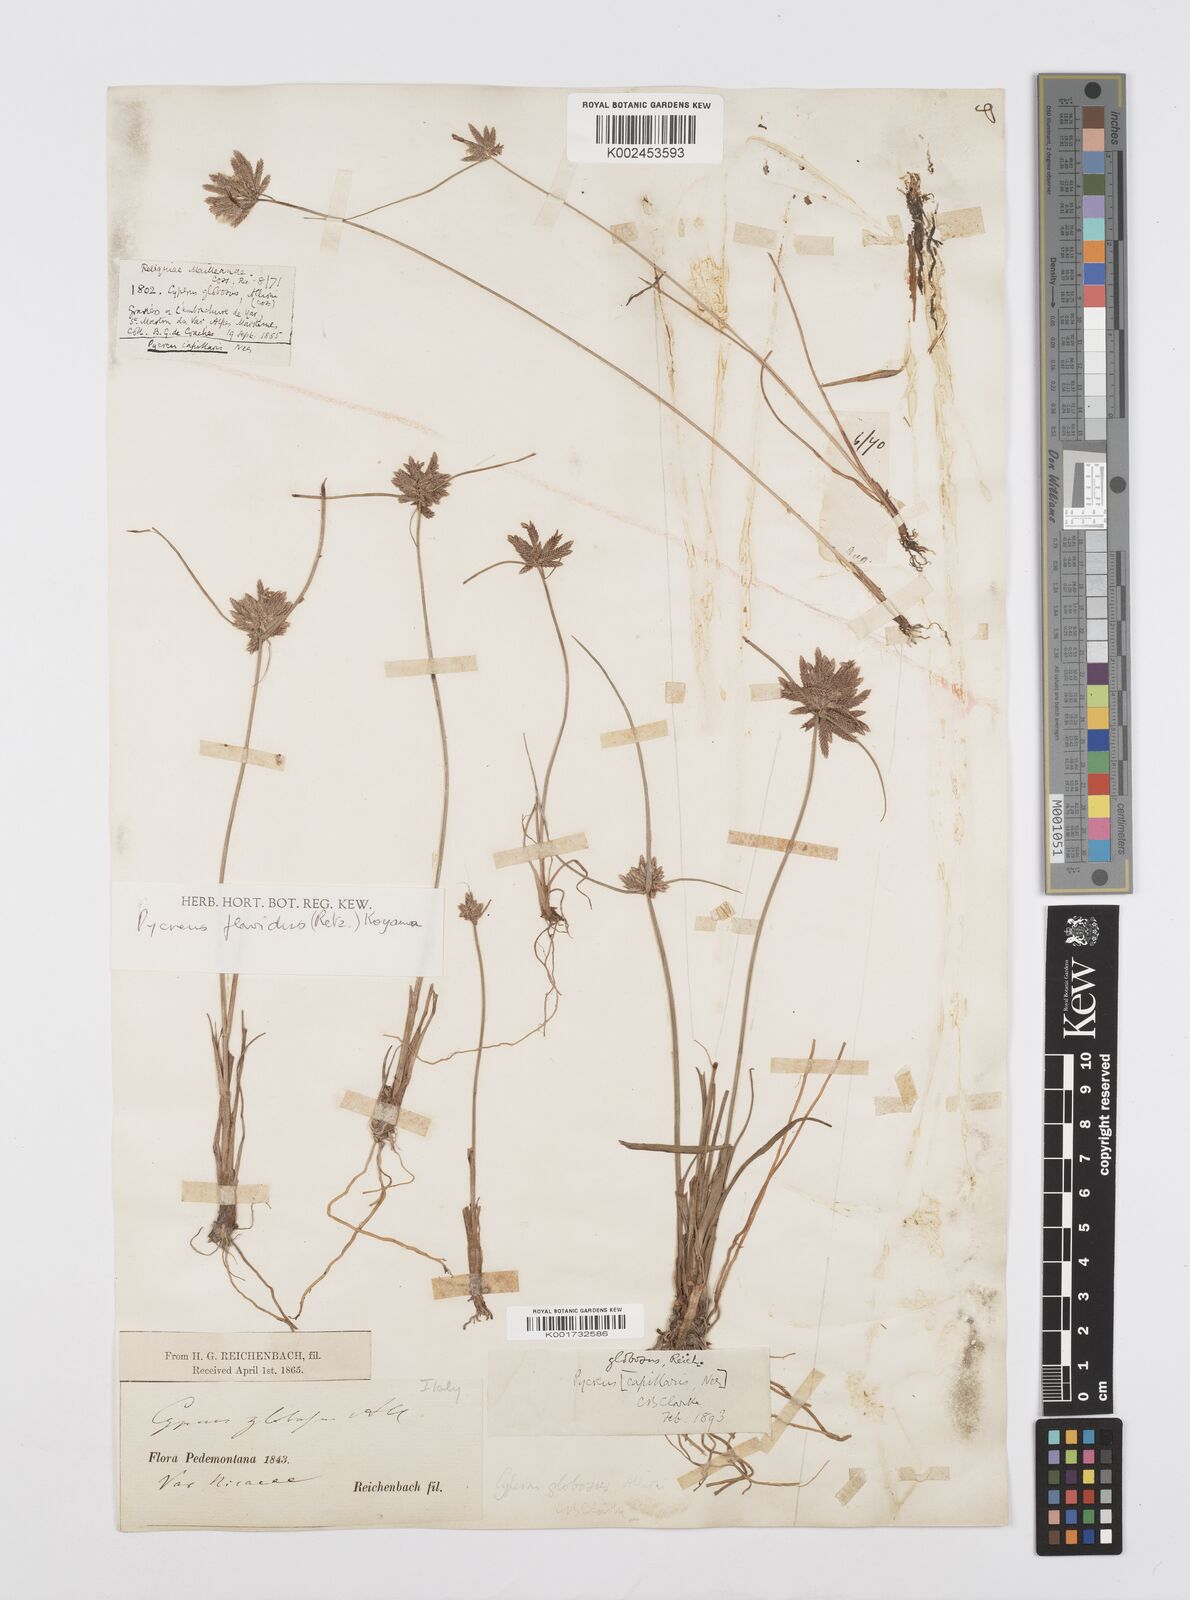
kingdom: Plantae
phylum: Tracheophyta
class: Liliopsida
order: Poales
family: Cyperaceae
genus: Cyperus
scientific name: Cyperus flavidus
